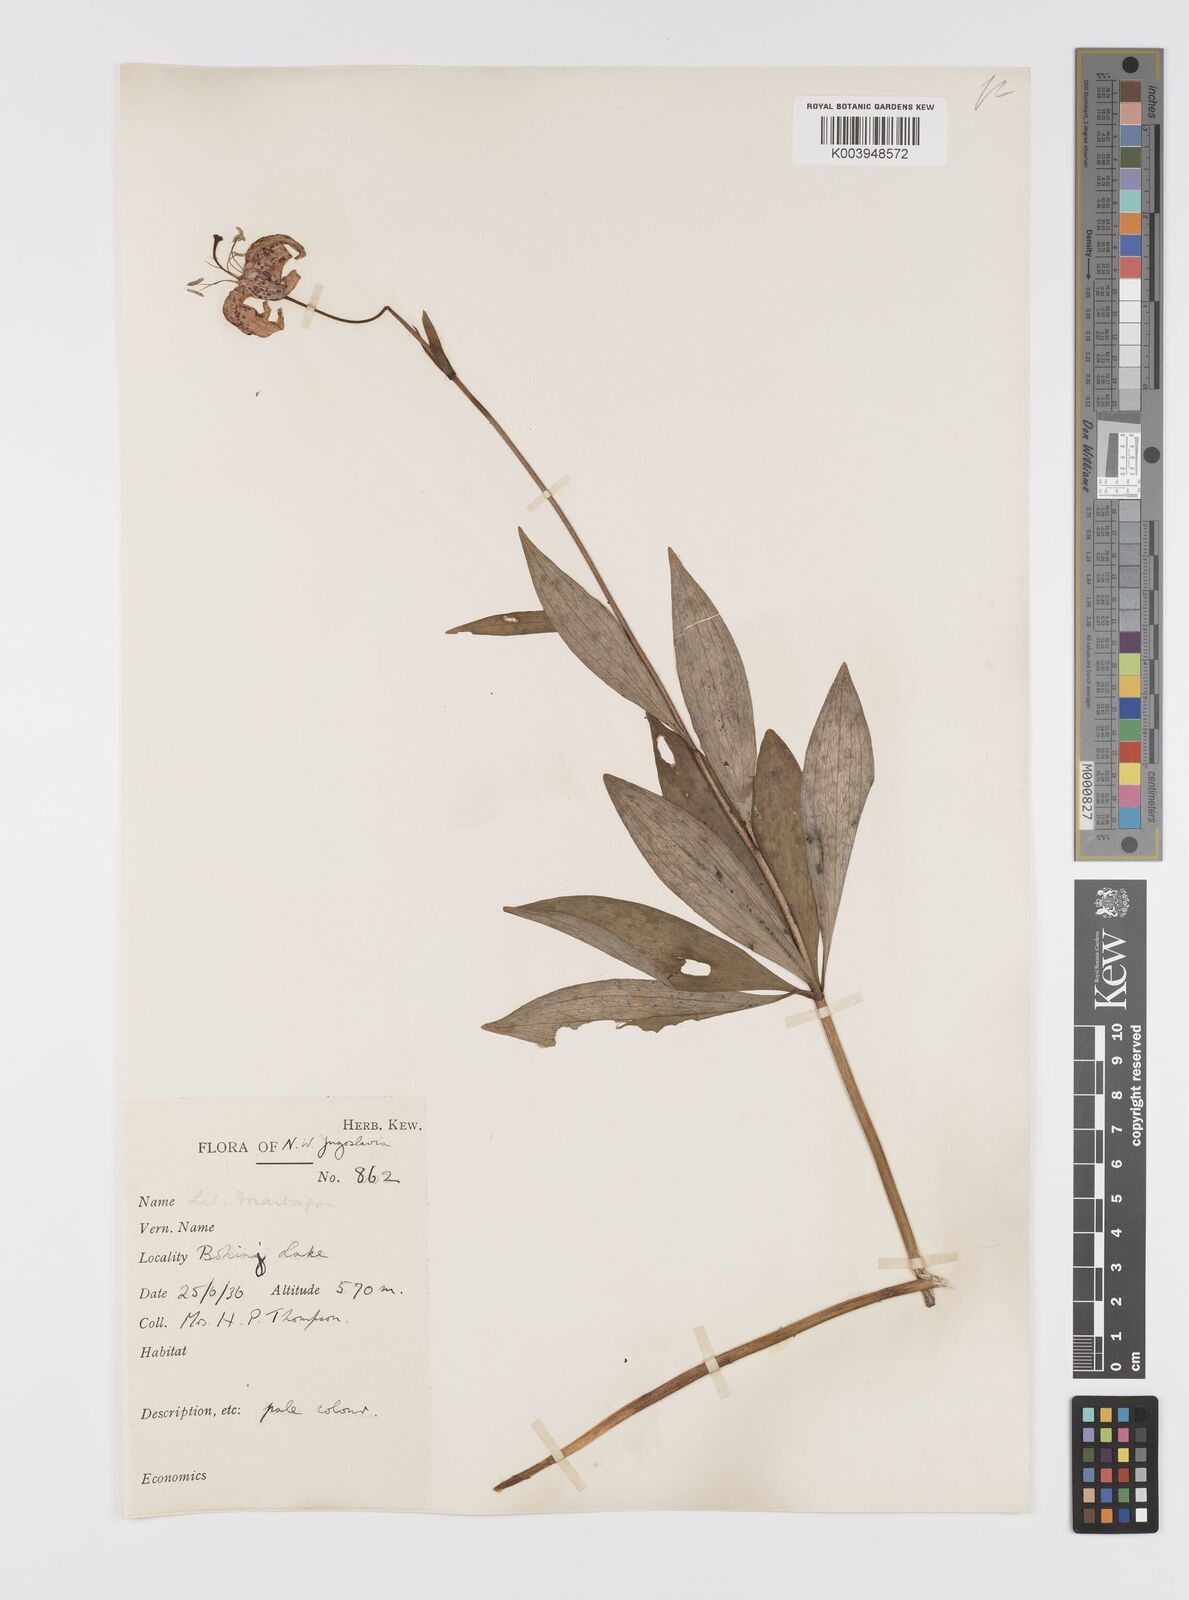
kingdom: Plantae
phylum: Tracheophyta
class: Liliopsida
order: Liliales
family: Liliaceae
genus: Lilium
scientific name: Lilium martagon
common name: Martagon lily
